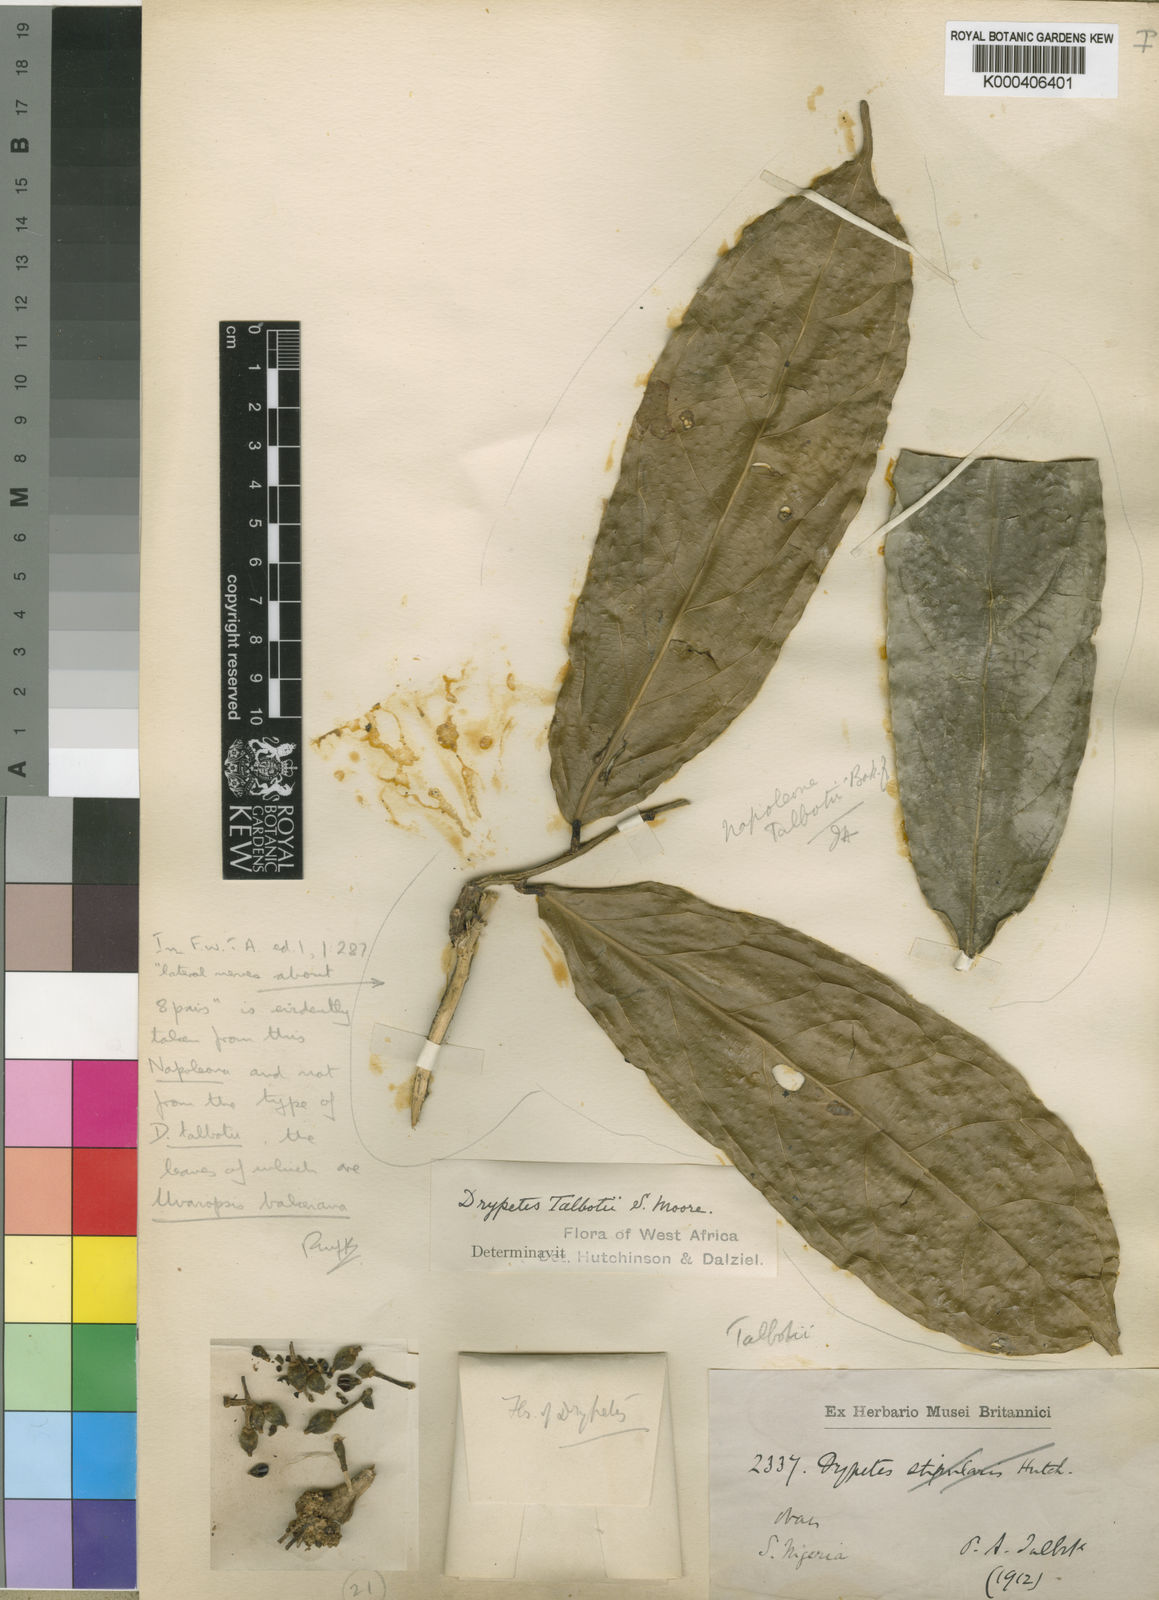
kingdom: Plantae
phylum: Tracheophyta
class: Magnoliopsida
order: Magnoliales
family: Annonaceae
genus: Uvariopsis
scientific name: Uvariopsis bakeriana
